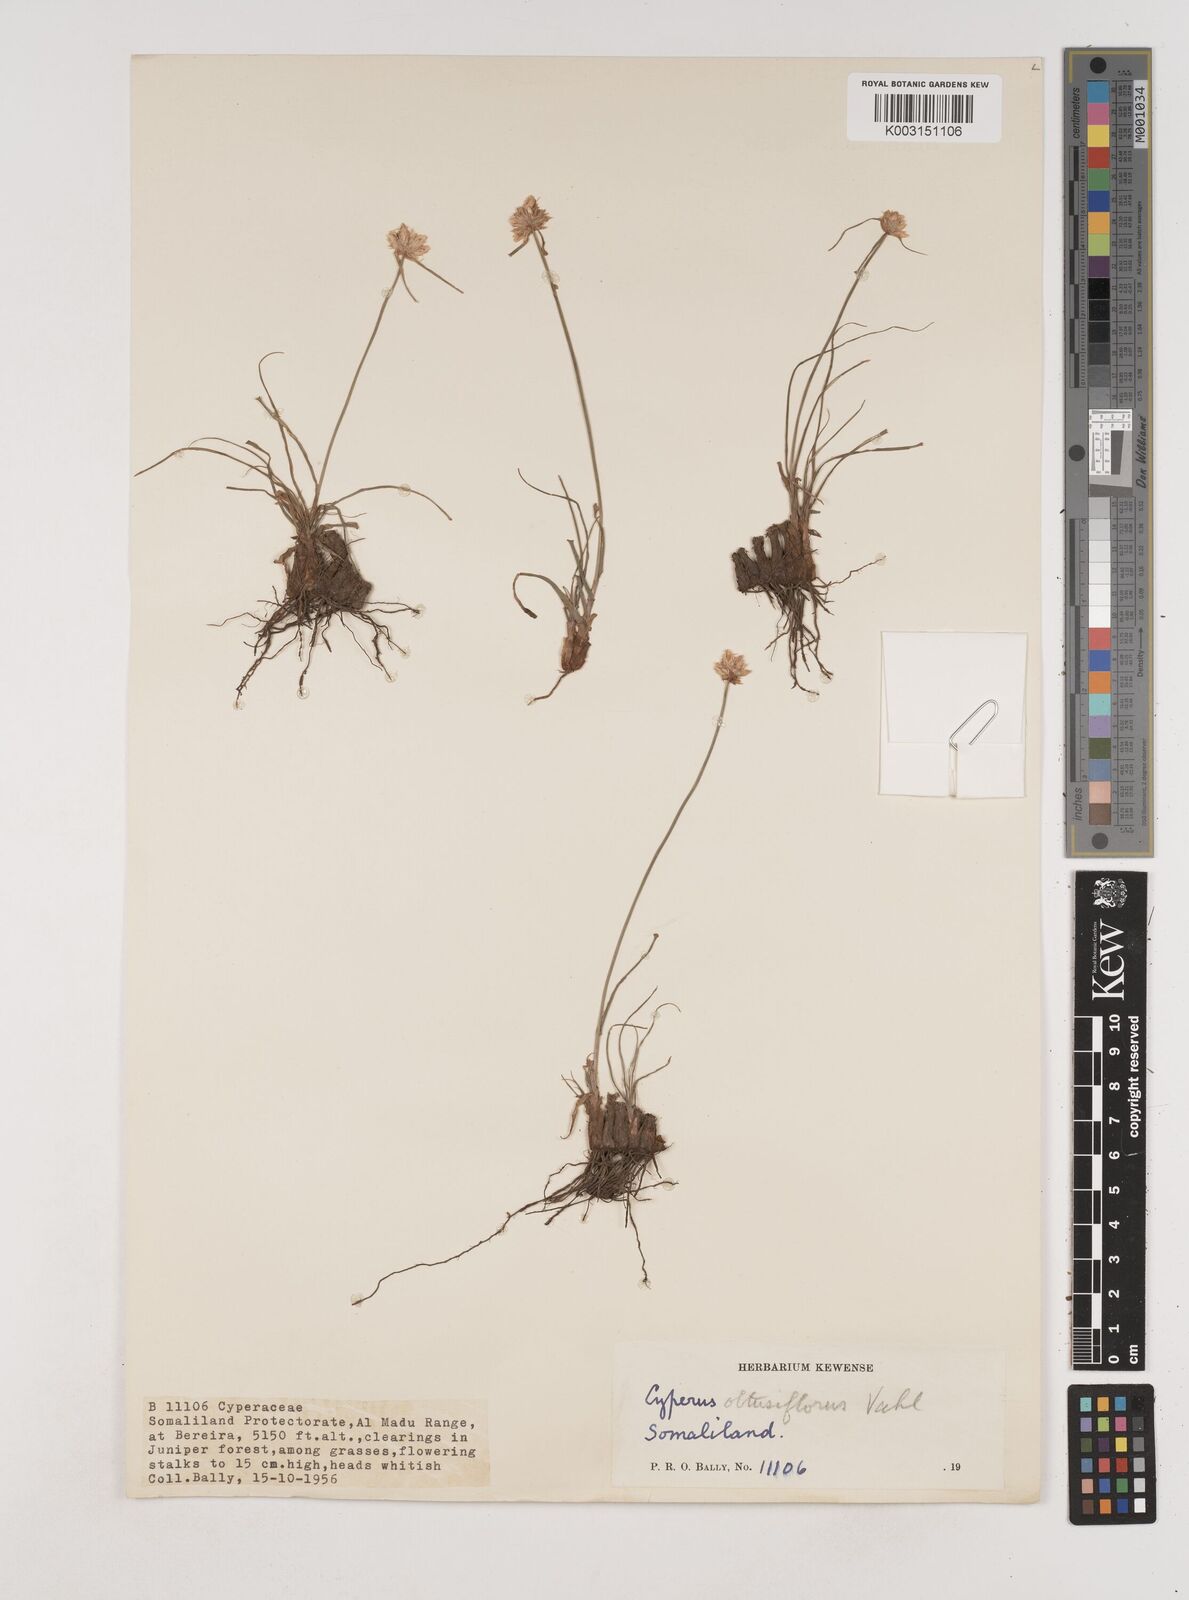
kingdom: Plantae
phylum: Tracheophyta
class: Liliopsida
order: Poales
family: Cyperaceae
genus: Cyperus
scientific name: Cyperus niveus
